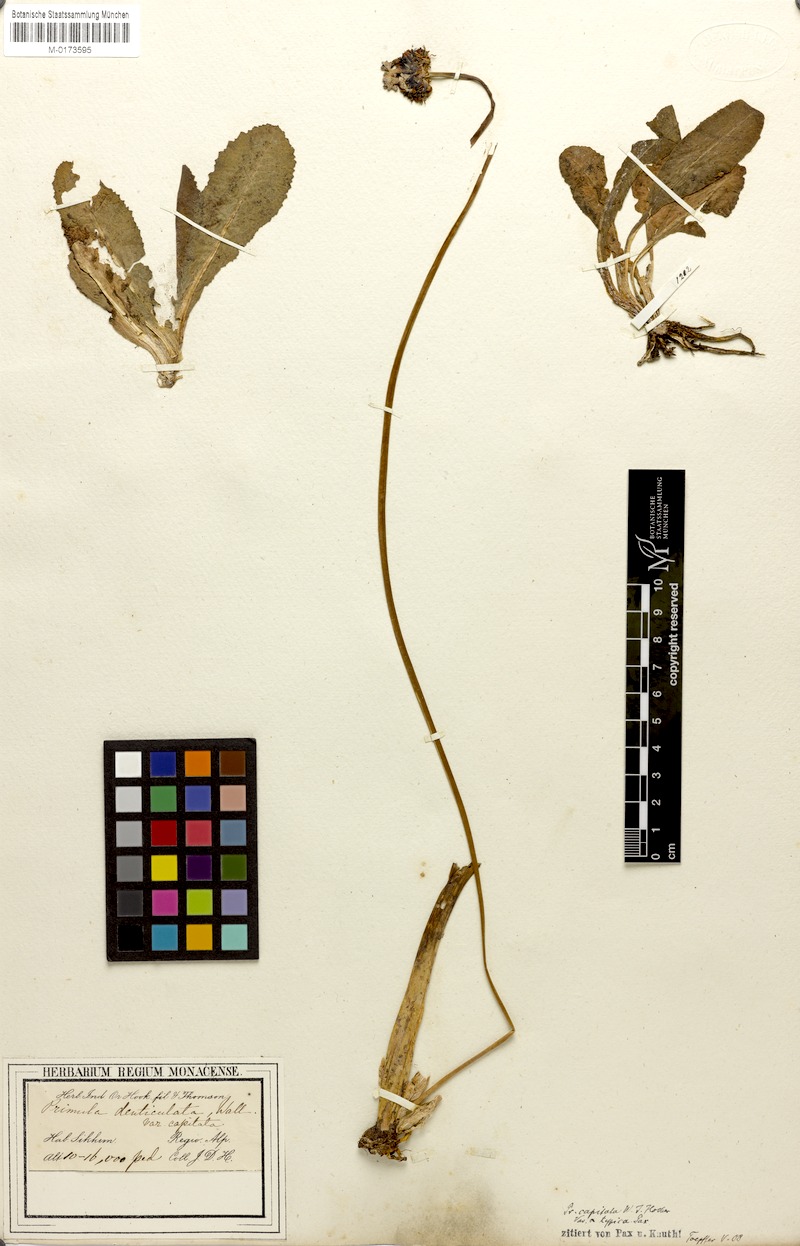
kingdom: Plantae
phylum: Tracheophyta
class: Magnoliopsida
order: Ericales
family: Primulaceae
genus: Primula
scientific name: Primula capitata
